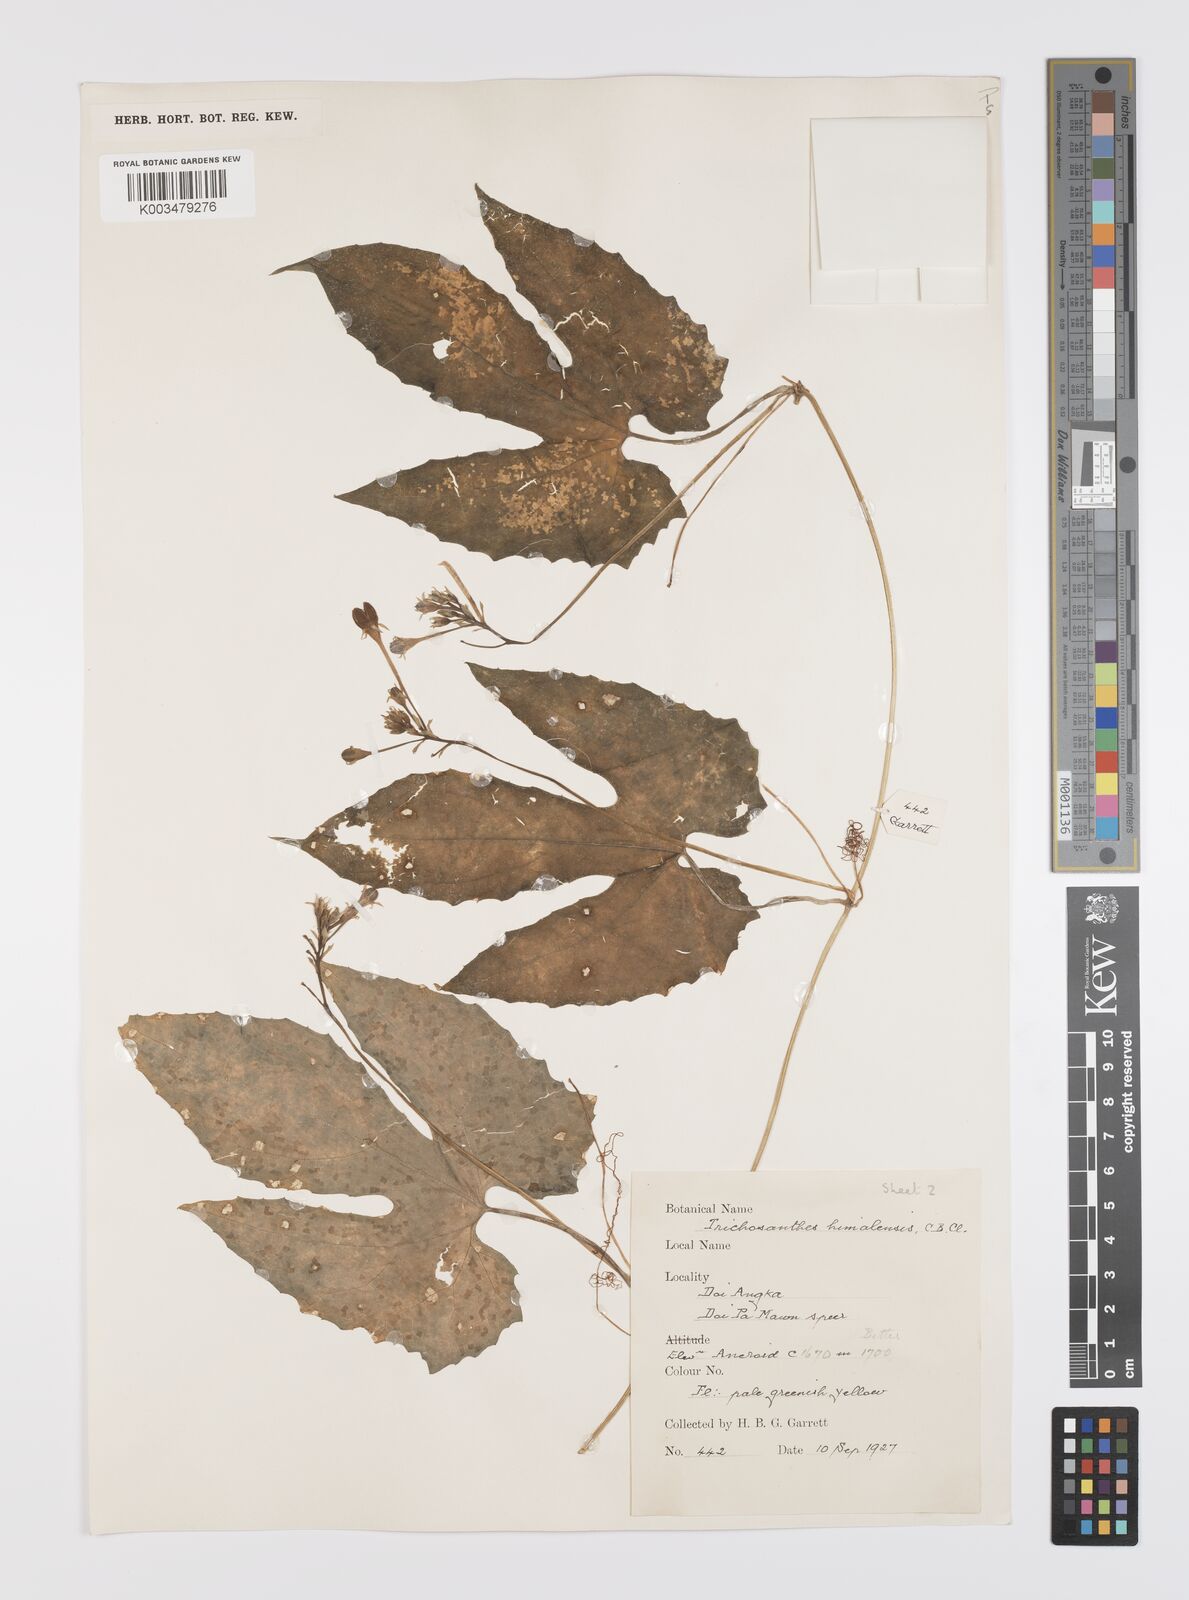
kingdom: Plantae
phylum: Tracheophyta
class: Magnoliopsida
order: Cucurbitales
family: Cucurbitaceae
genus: Trichosanthes
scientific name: Trichosanthes ovigera
